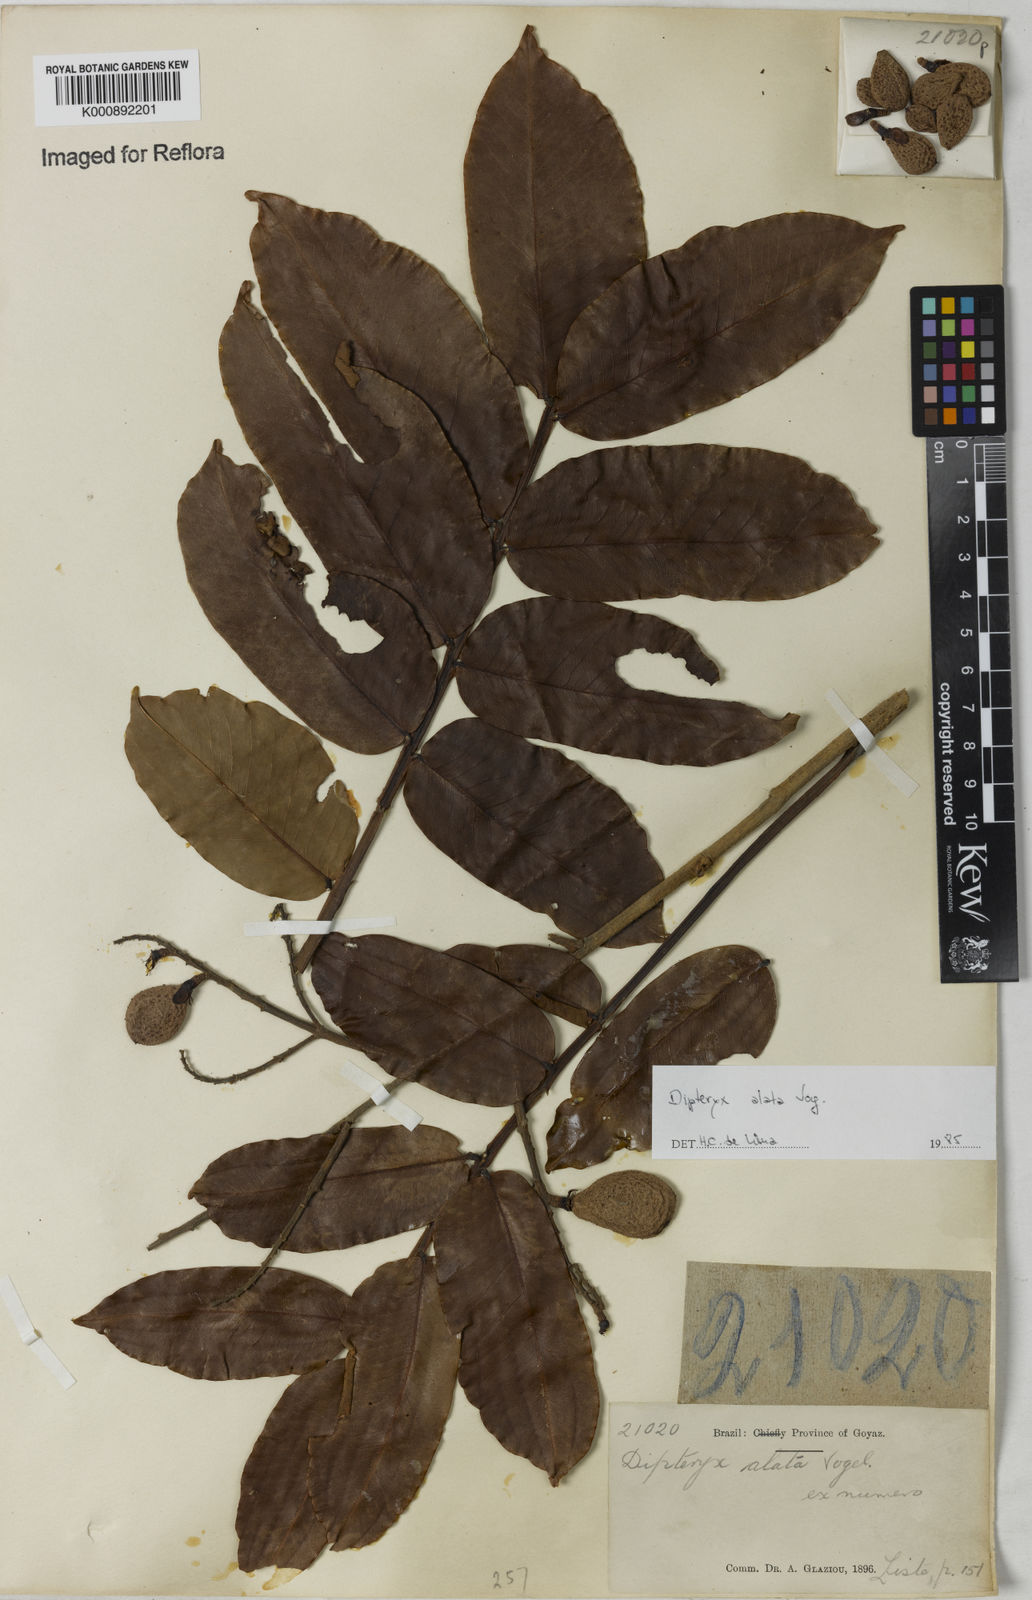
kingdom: Plantae
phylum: Tracheophyta
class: Magnoliopsida
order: Fabales
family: Fabaceae
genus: Dipteryx
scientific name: Dipteryx alata
